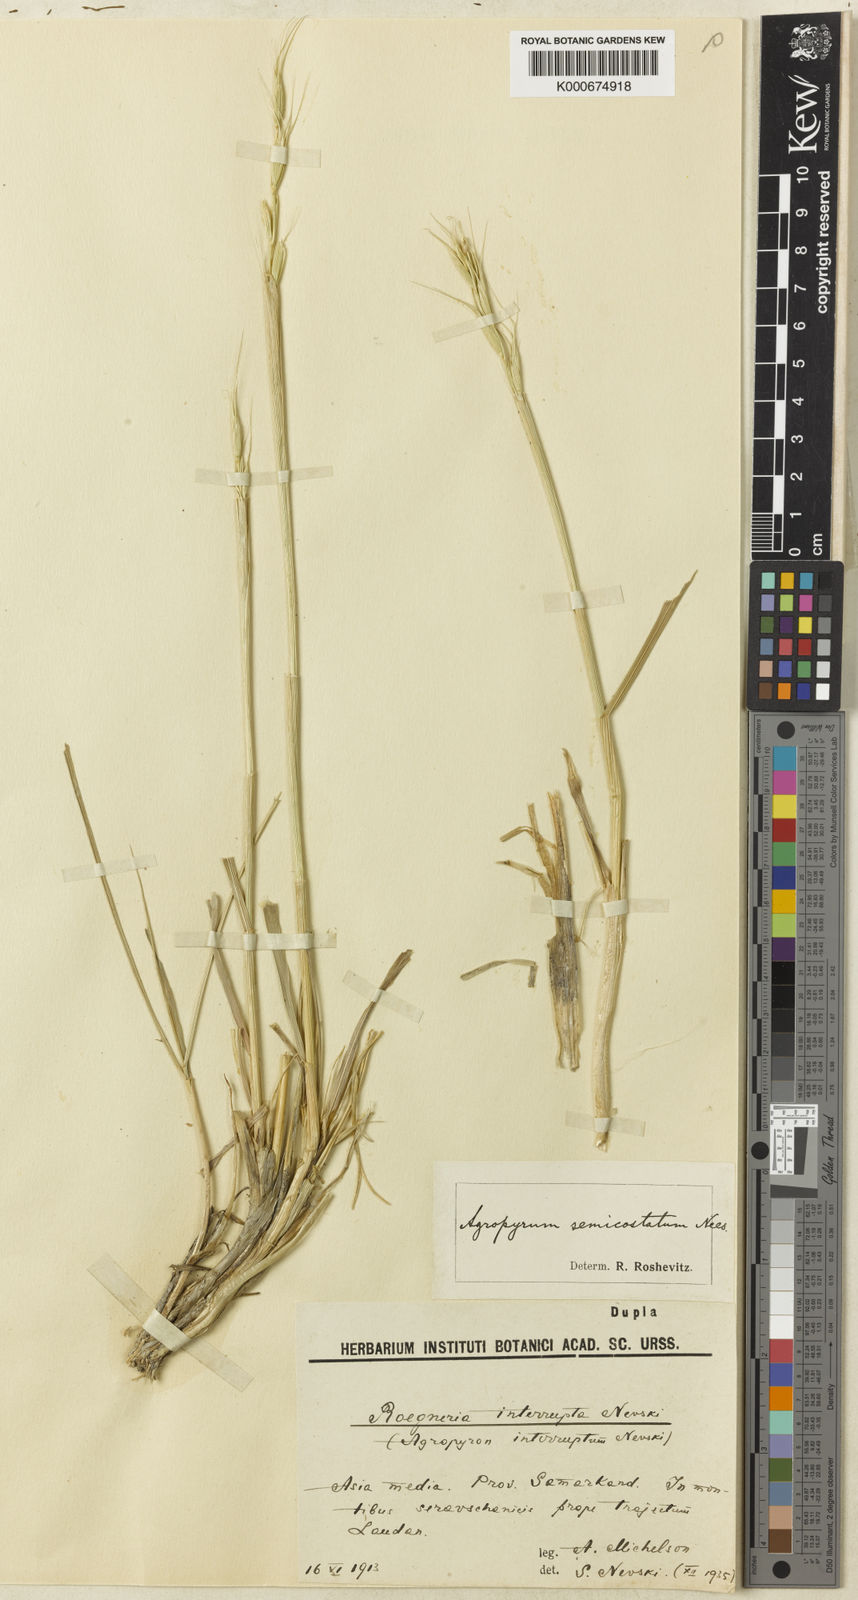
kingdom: Plantae
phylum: Tracheophyta
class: Liliopsida
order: Poales
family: Poaceae
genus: Elymus
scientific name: Elymus praeruptus
